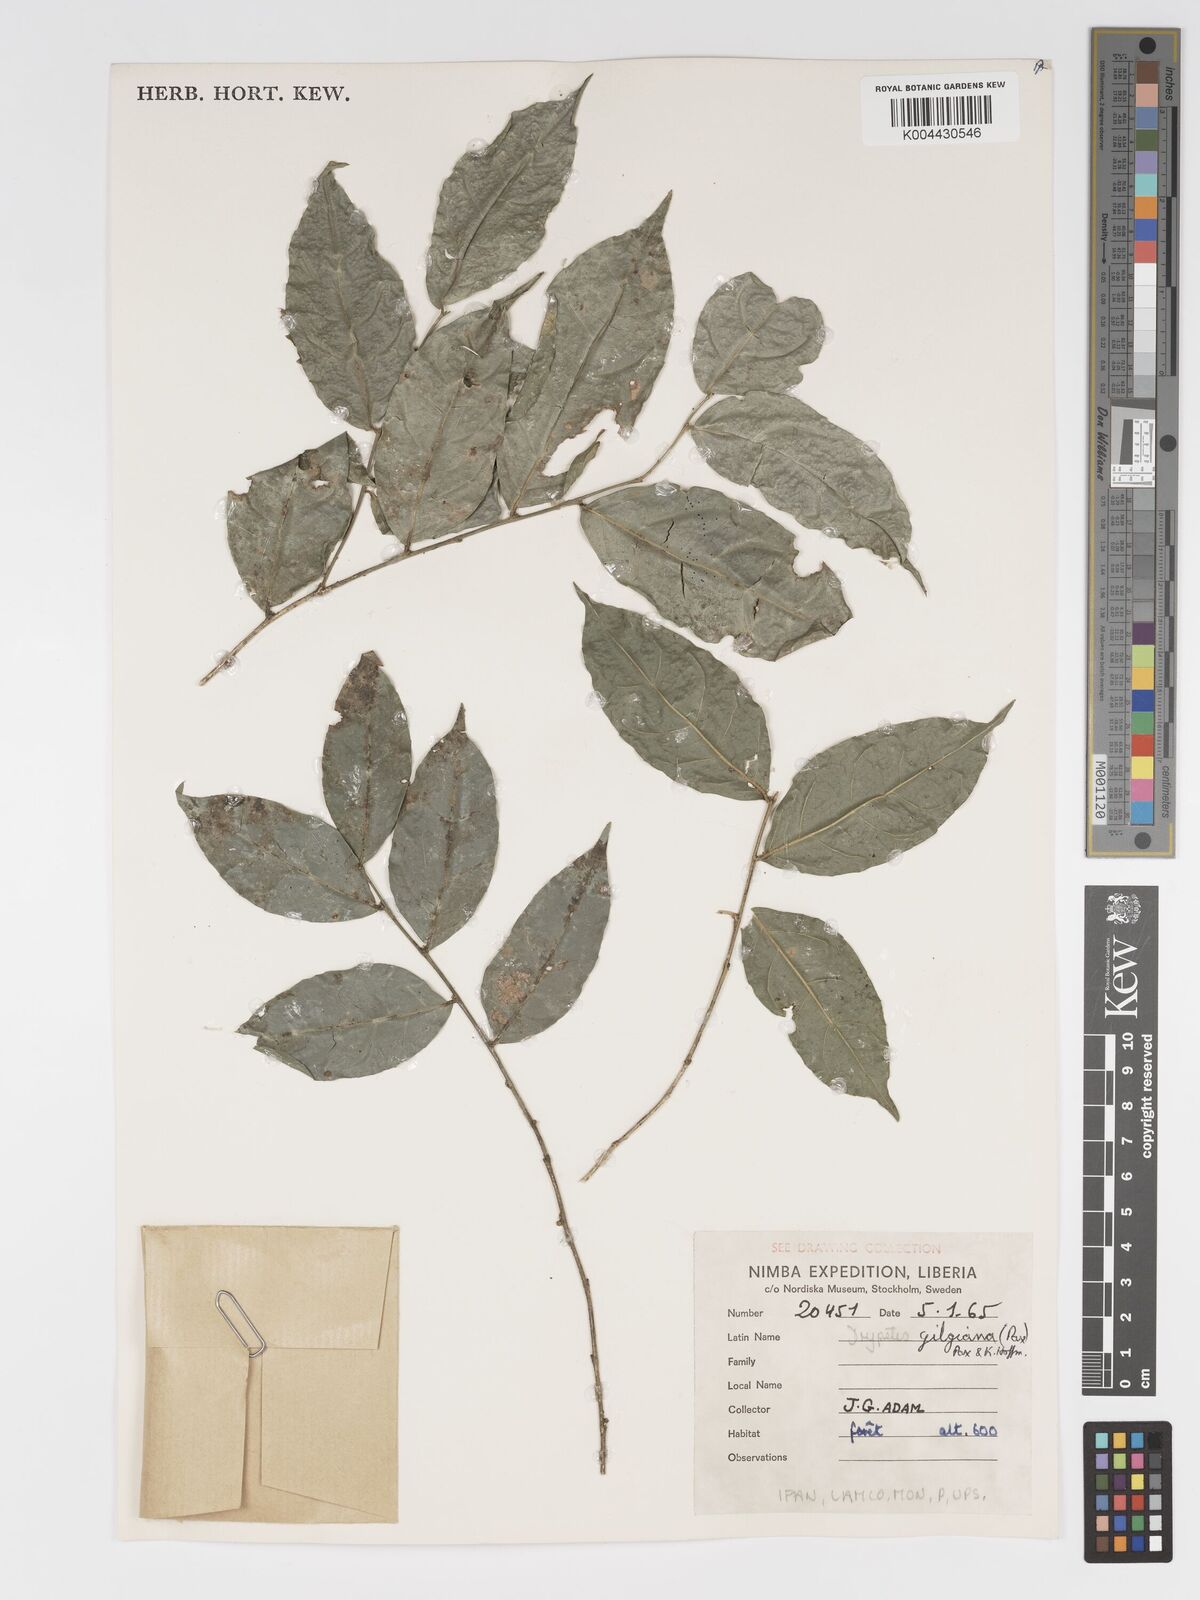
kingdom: Plantae
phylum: Tracheophyta
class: Magnoliopsida
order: Malpighiales
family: Putranjivaceae
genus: Drypetes
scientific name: Drypetes gilgiana
